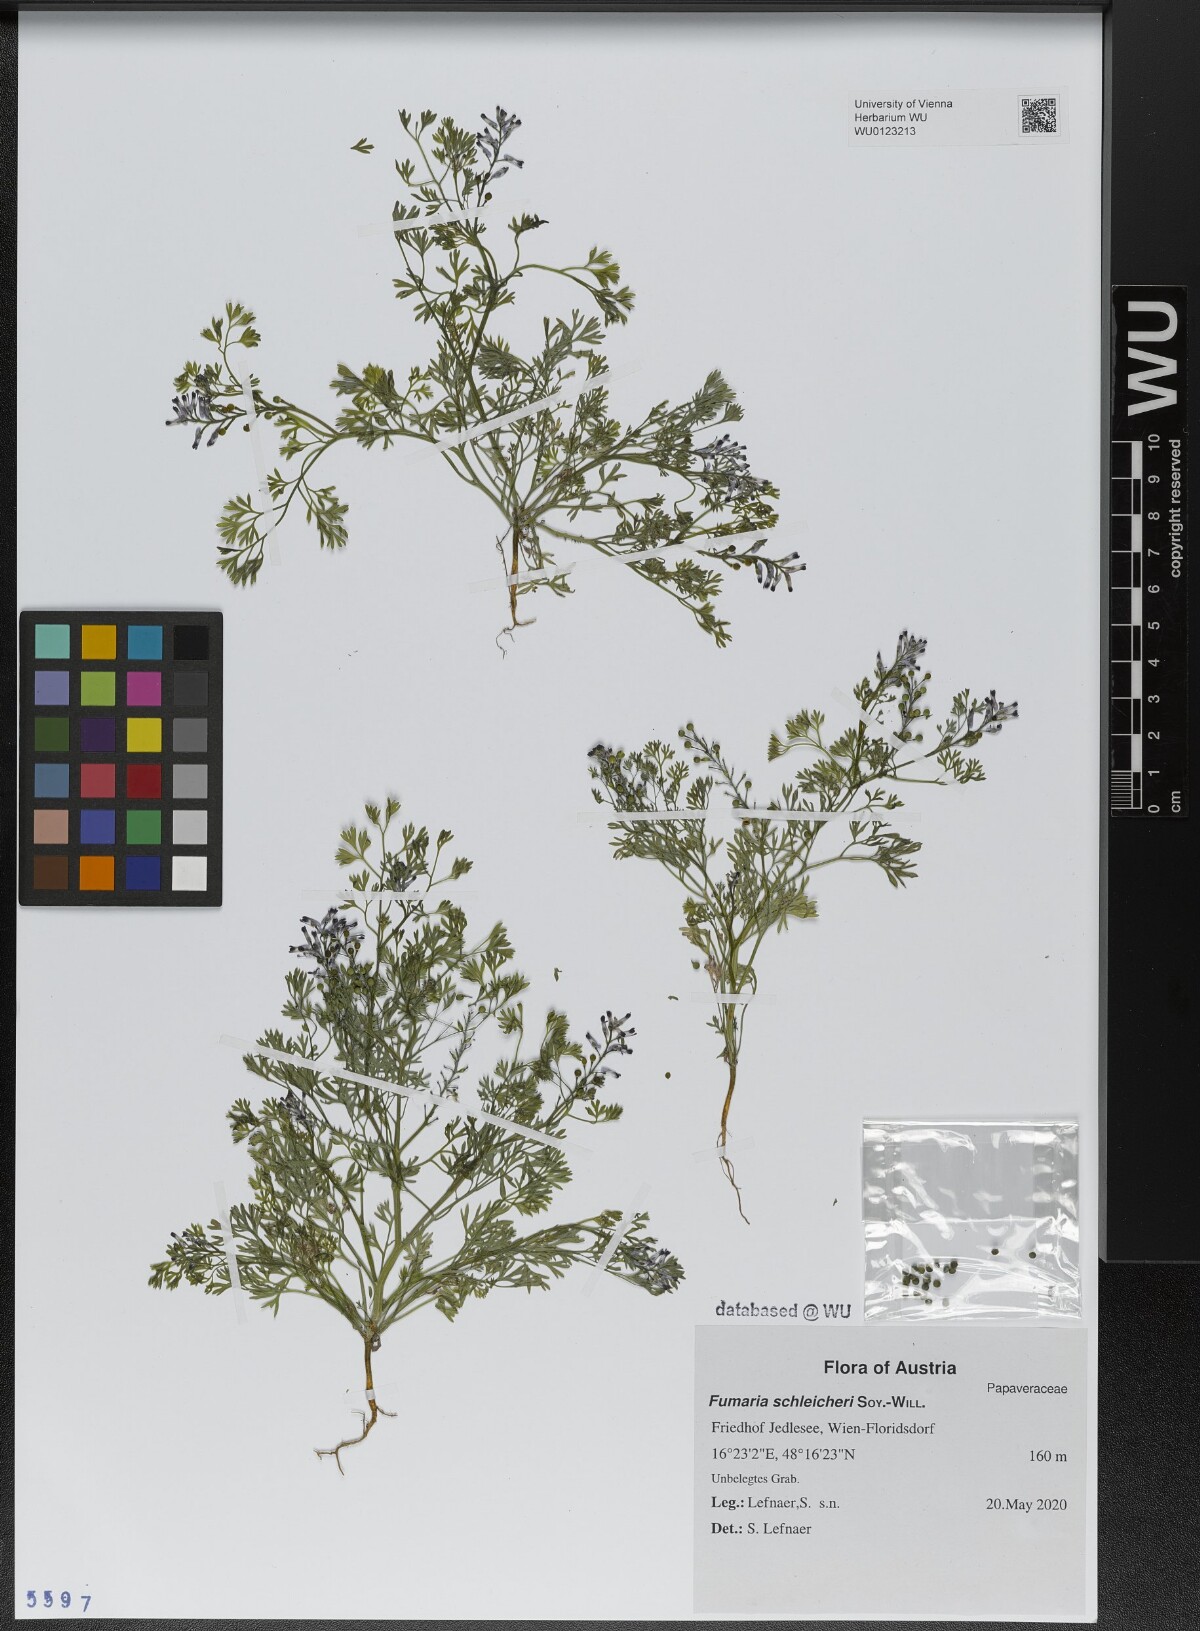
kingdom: Plantae
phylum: Tracheophyta
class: Magnoliopsida
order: Ranunculales
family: Papaveraceae
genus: Fumaria
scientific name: Fumaria schleicheri
